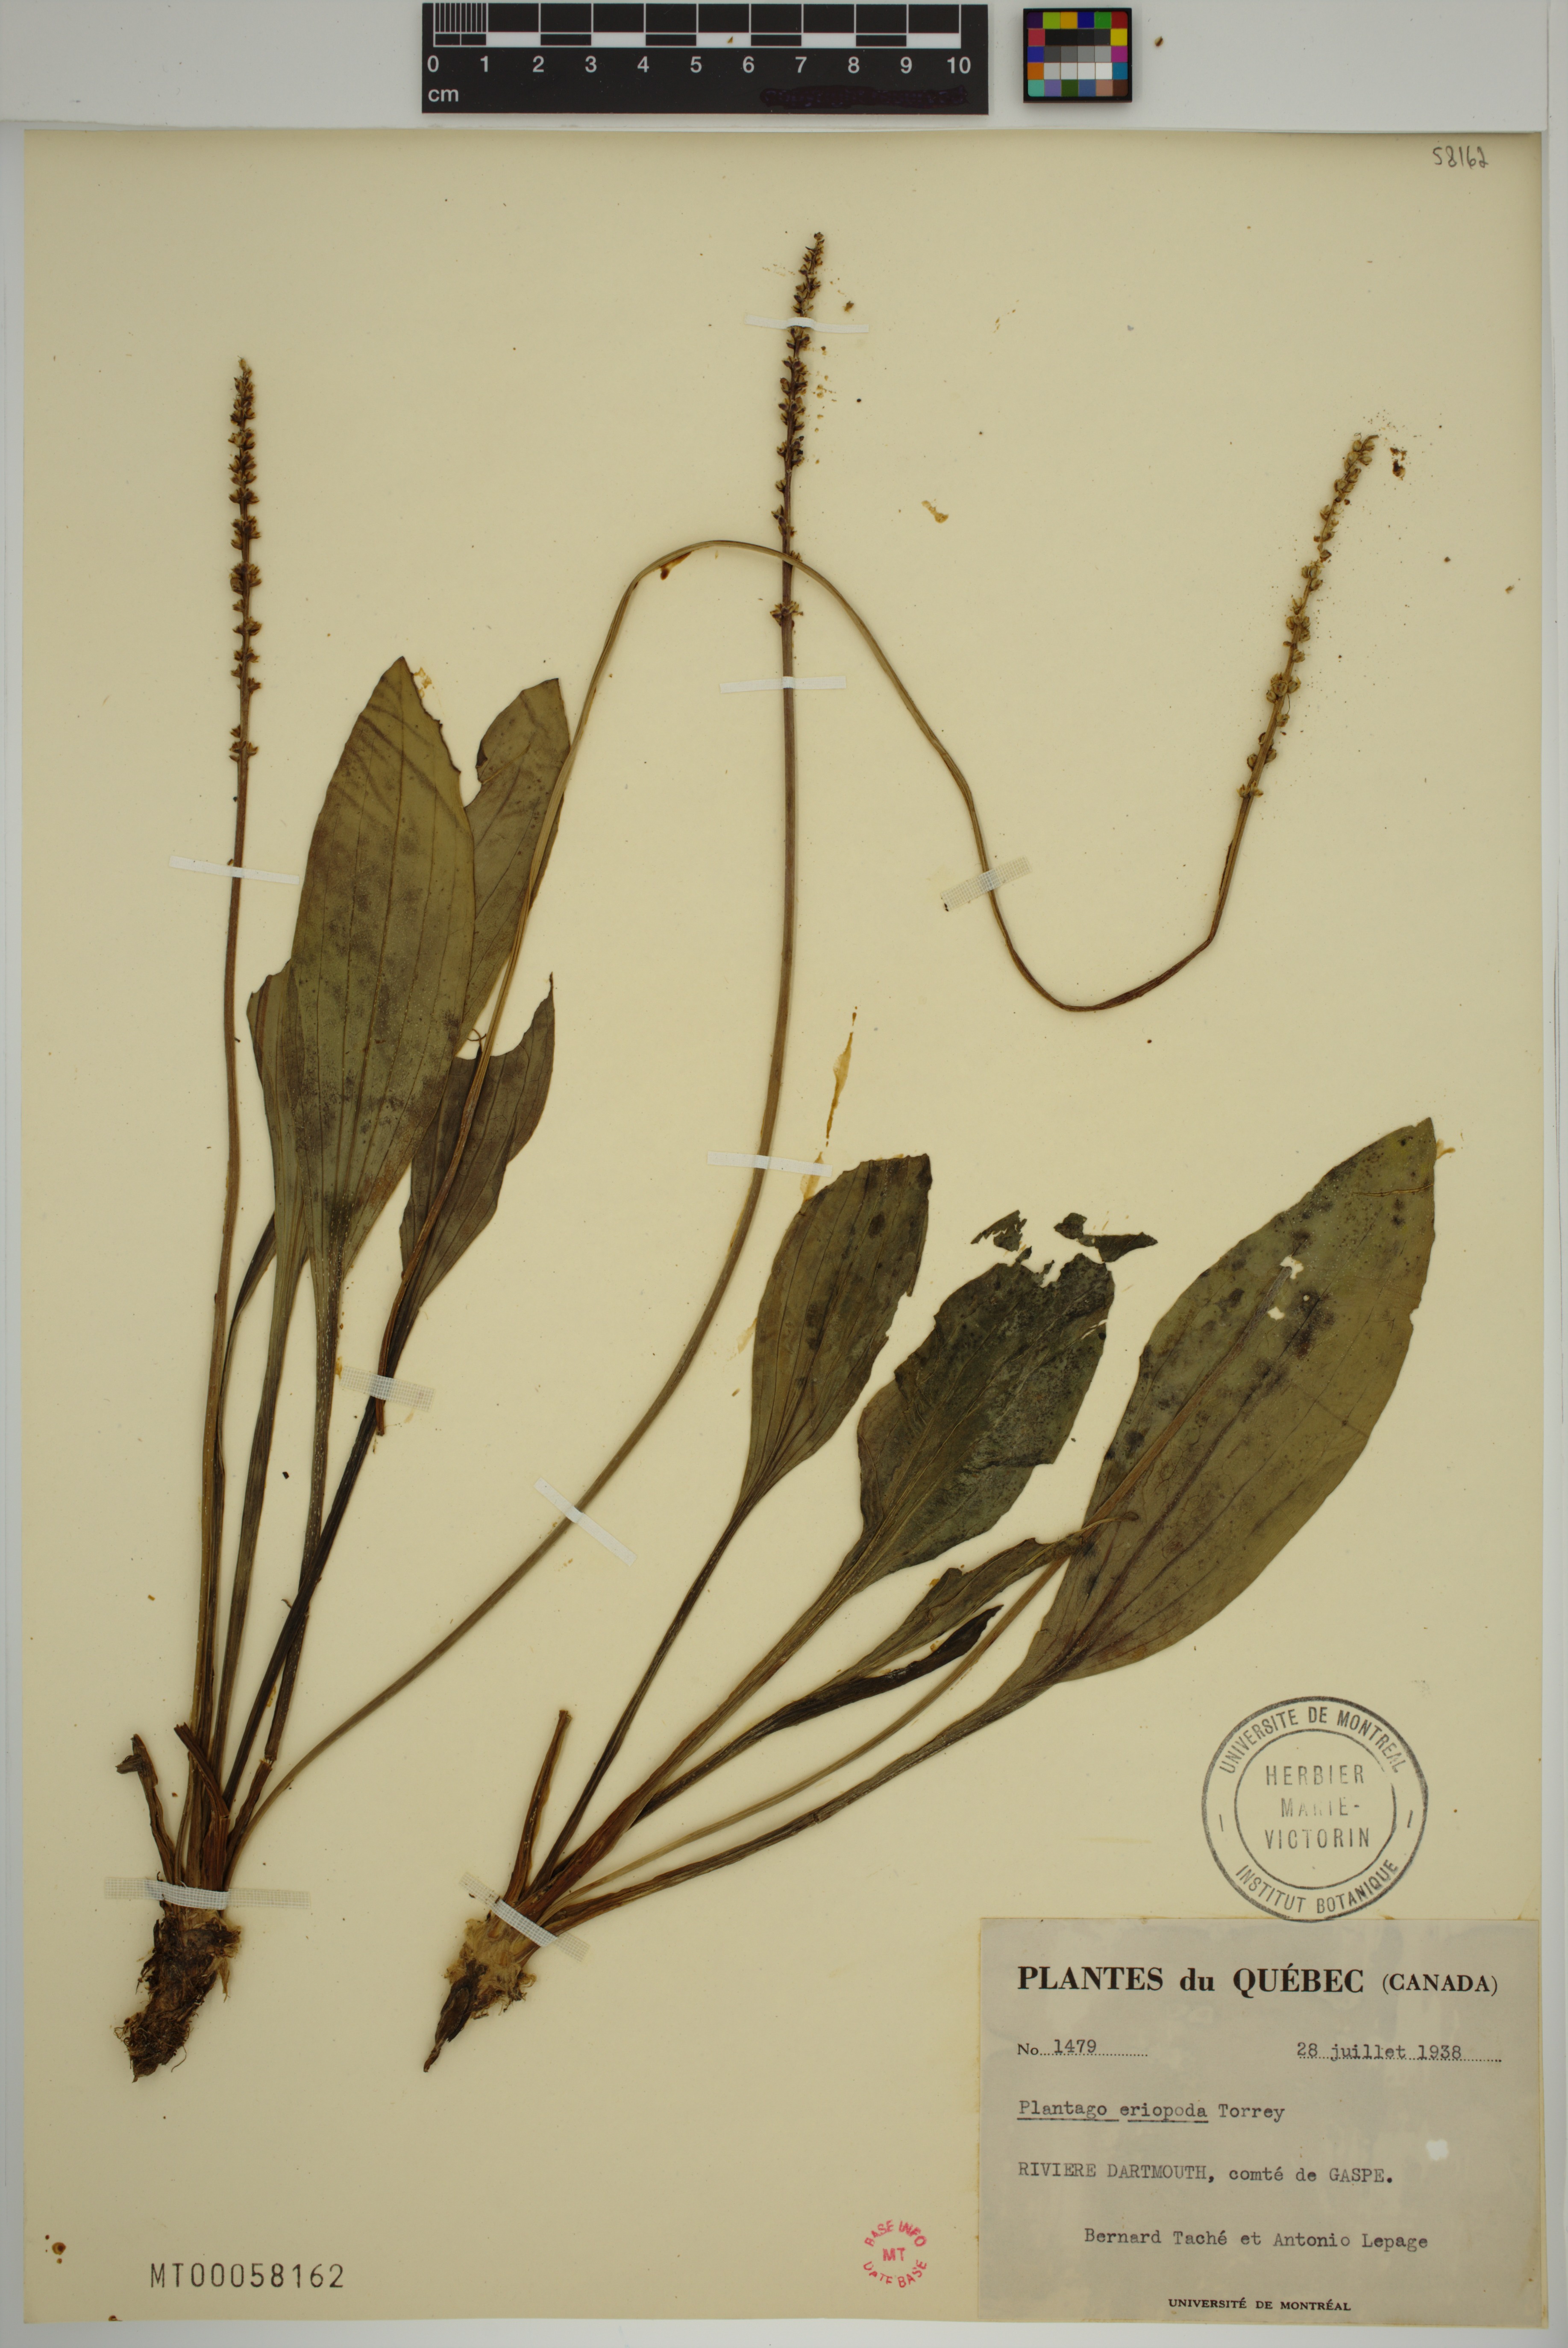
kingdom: Plantae
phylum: Tracheophyta
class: Magnoliopsida
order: Lamiales
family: Plantaginaceae
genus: Plantago
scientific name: Plantago eriopoda
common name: Alkali plantain
